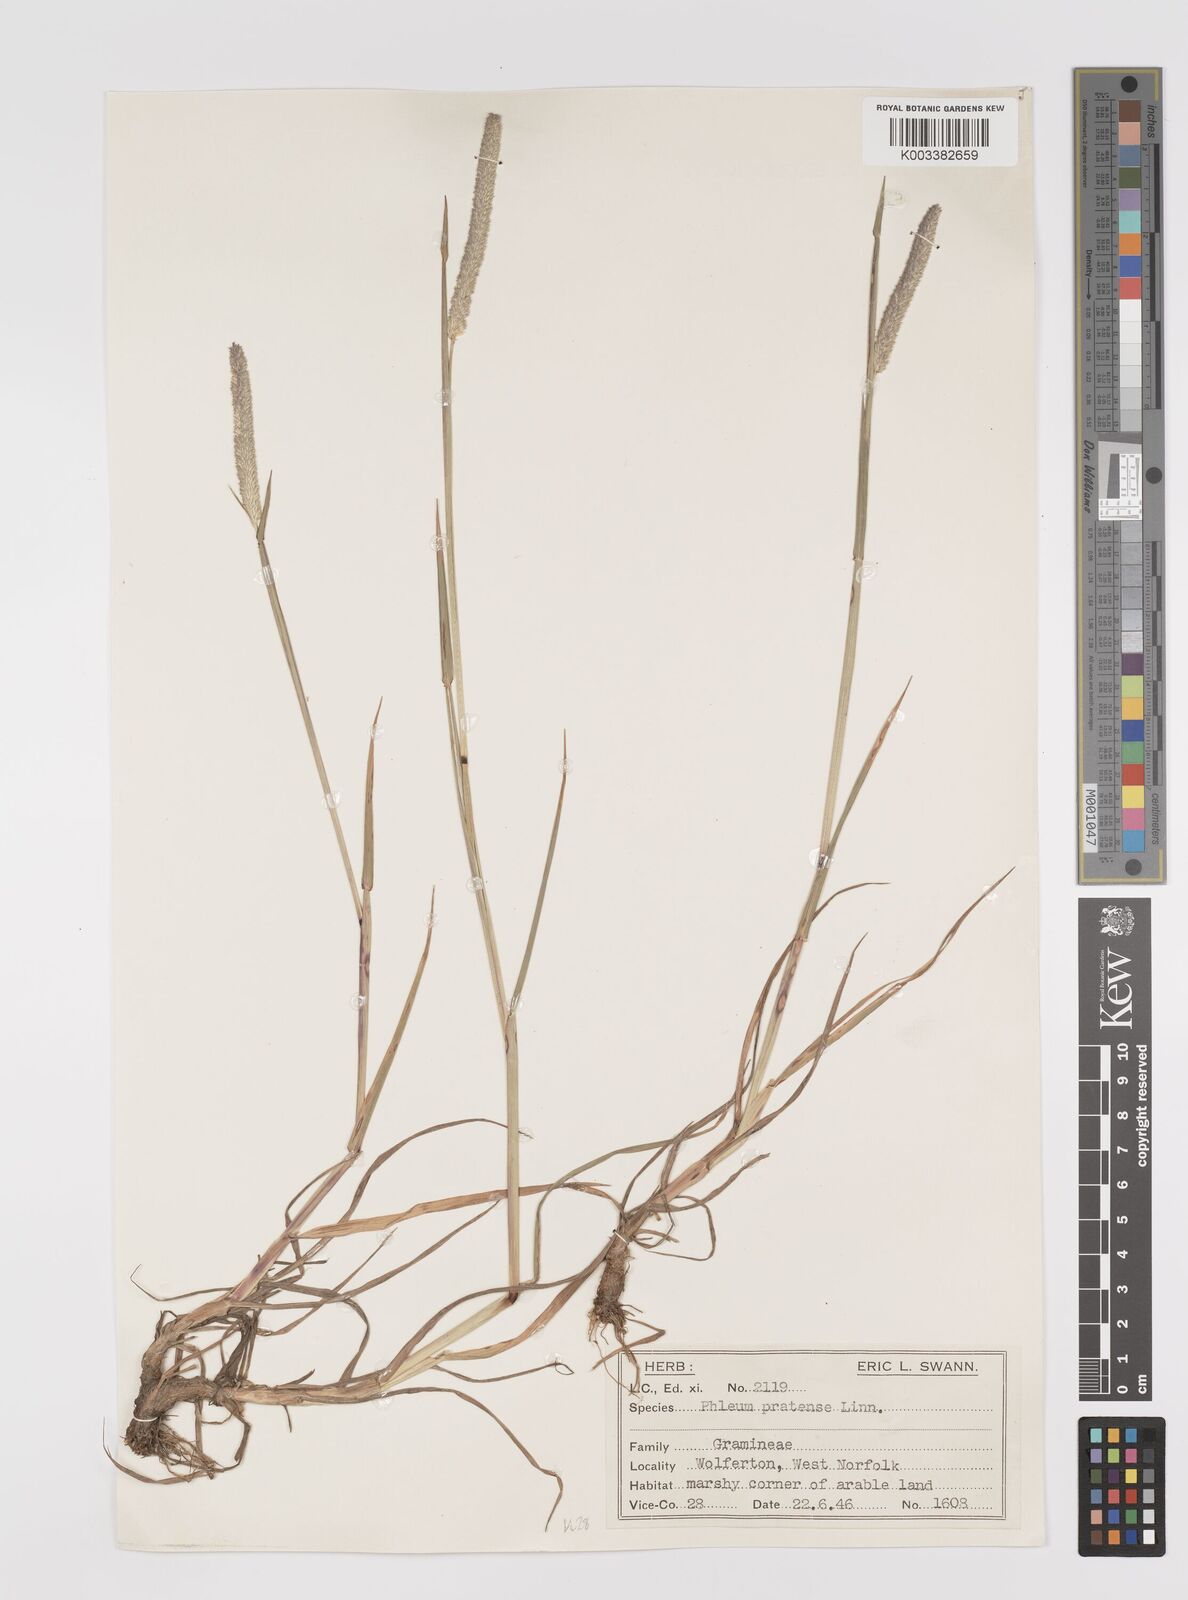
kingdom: Plantae
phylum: Tracheophyta
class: Liliopsida
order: Poales
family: Poaceae
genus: Phleum
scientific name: Phleum pratense
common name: Timothy grass
